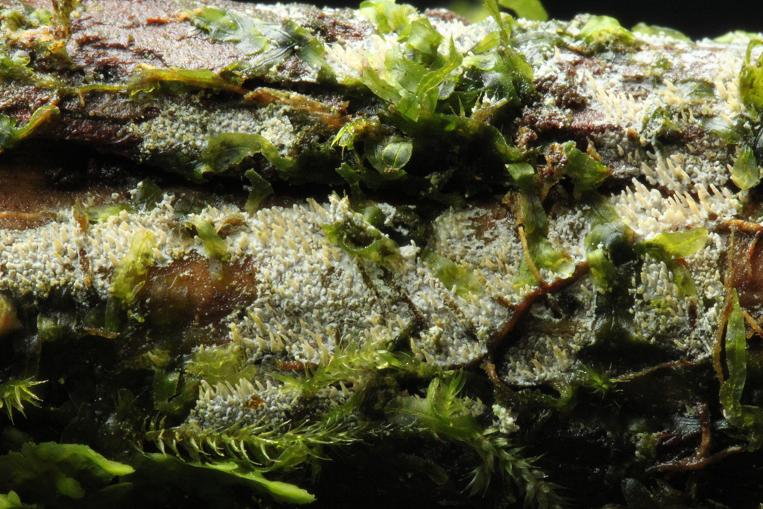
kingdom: Fungi
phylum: Basidiomycota
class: Agaricomycetes
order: Corticiales
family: Corticiaceae
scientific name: Corticiaceae
